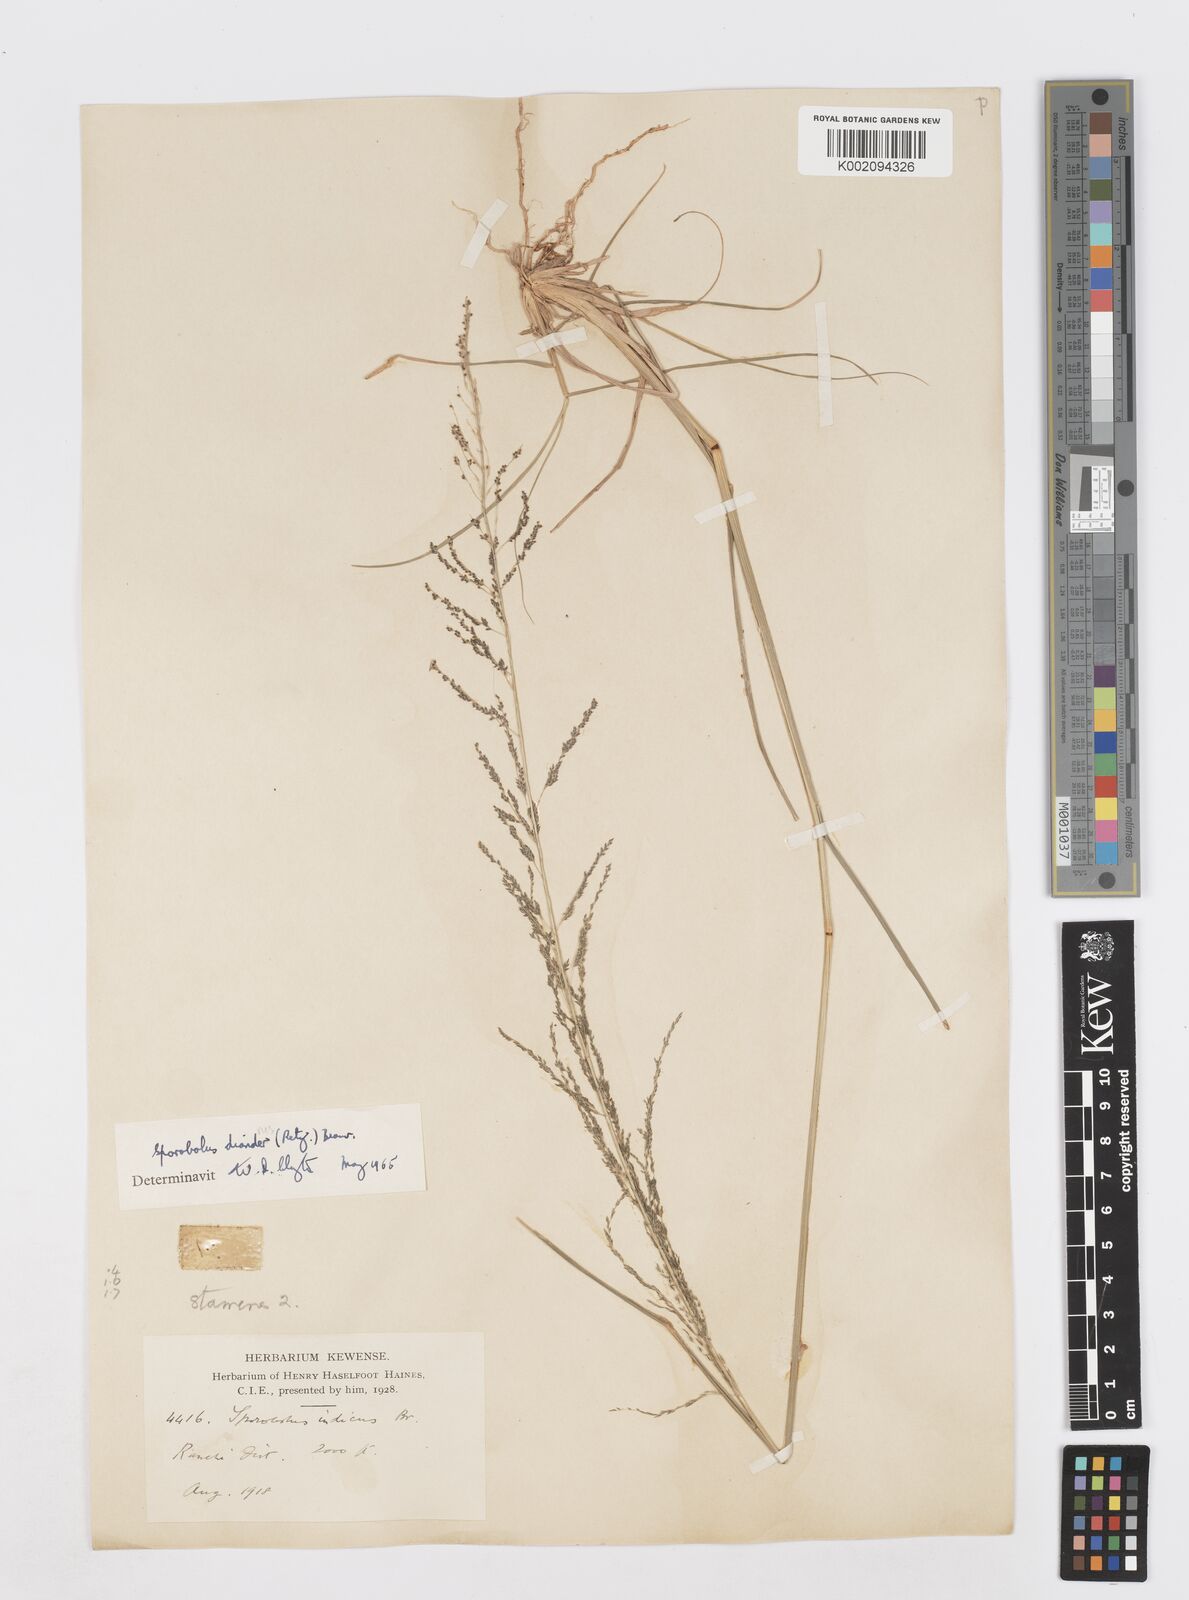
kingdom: Plantae
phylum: Tracheophyta
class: Liliopsida
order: Poales
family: Poaceae
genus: Sporobolus
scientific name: Sporobolus diandrus
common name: Tussock dropseed
